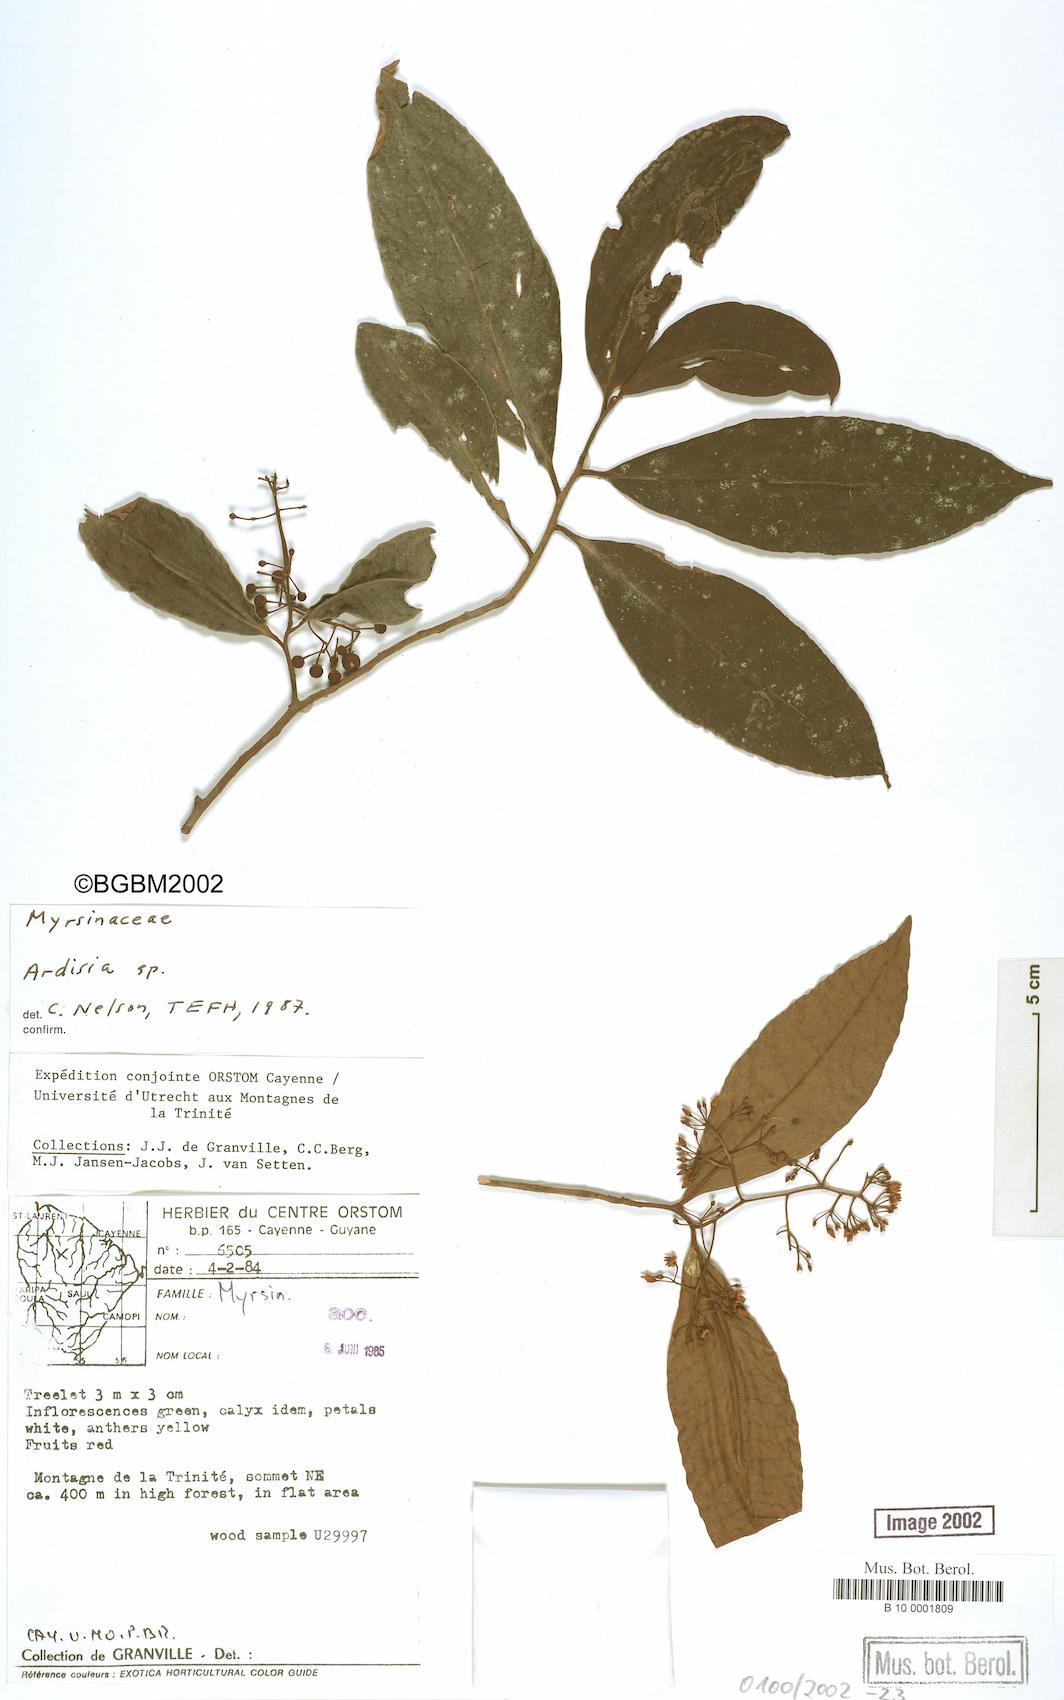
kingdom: Plantae
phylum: Tracheophyta
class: Magnoliopsida
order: Ericales
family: Primulaceae
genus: Ardisia
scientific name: Ardisia
